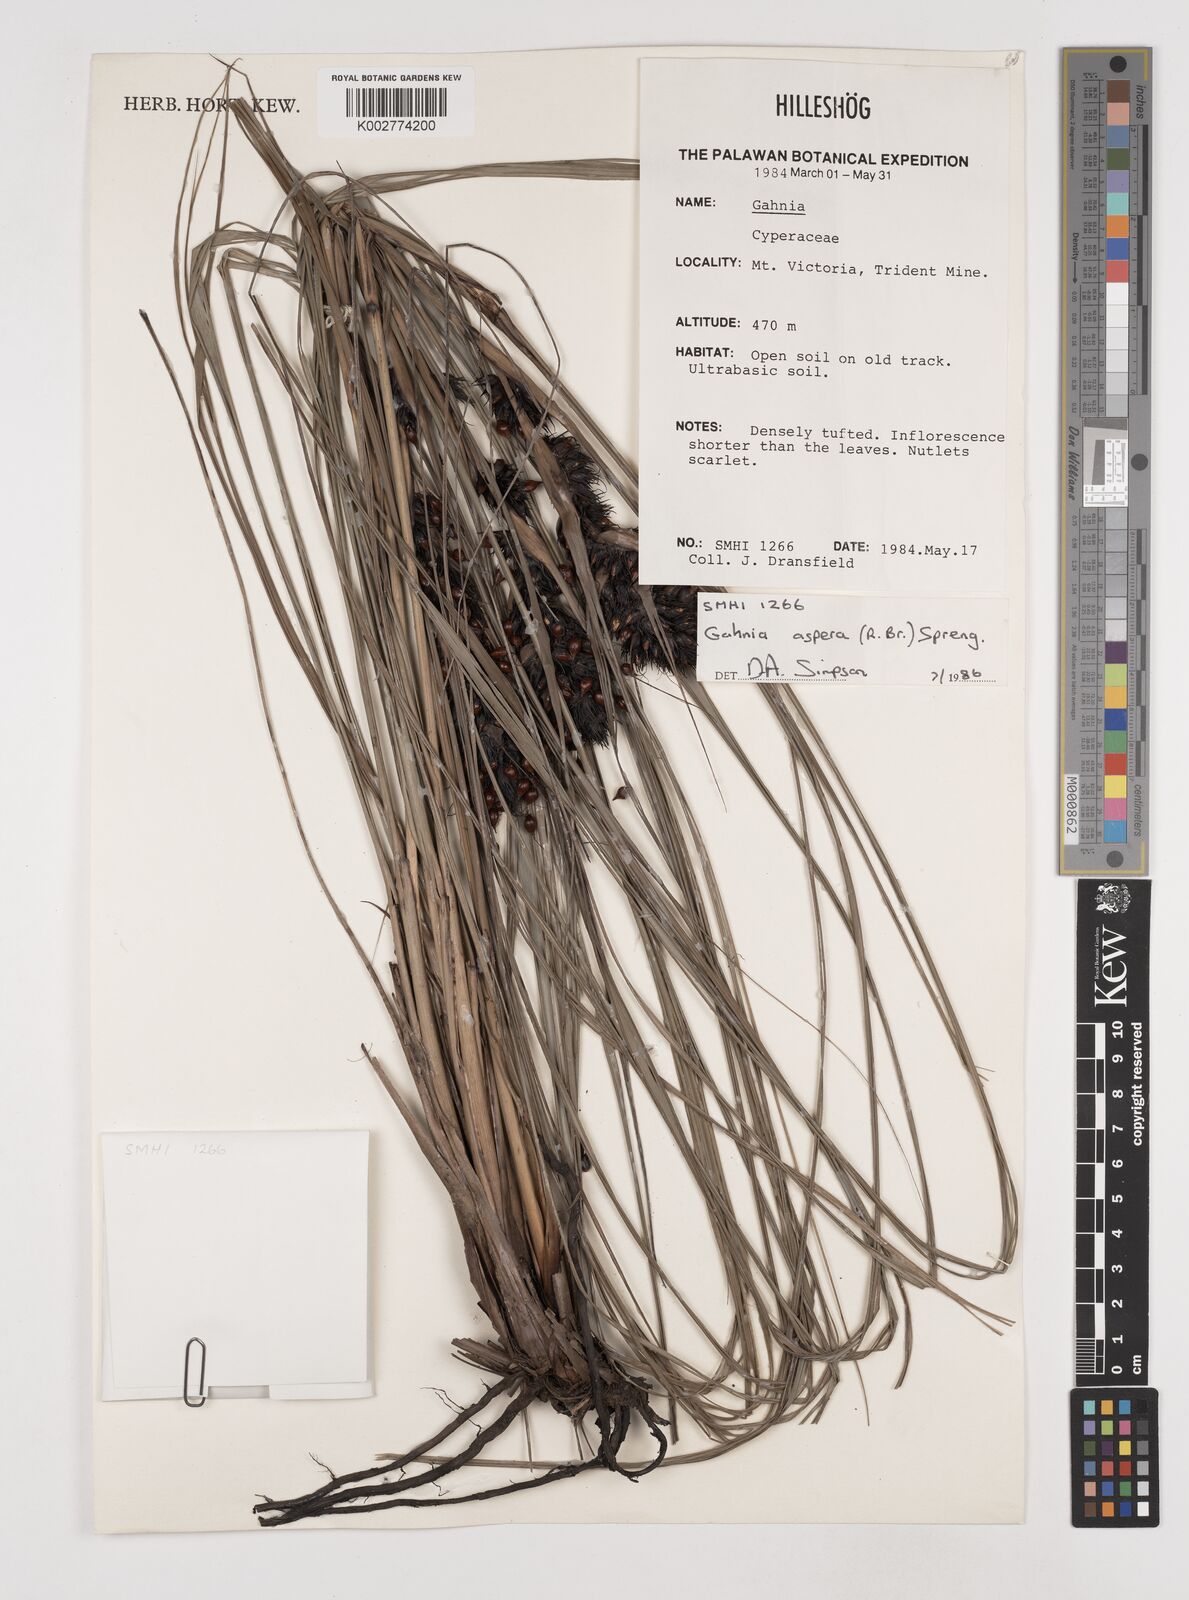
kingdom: Plantae
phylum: Tracheophyta
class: Liliopsida
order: Poales
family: Cyperaceae
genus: Gahnia
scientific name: Gahnia aspera
